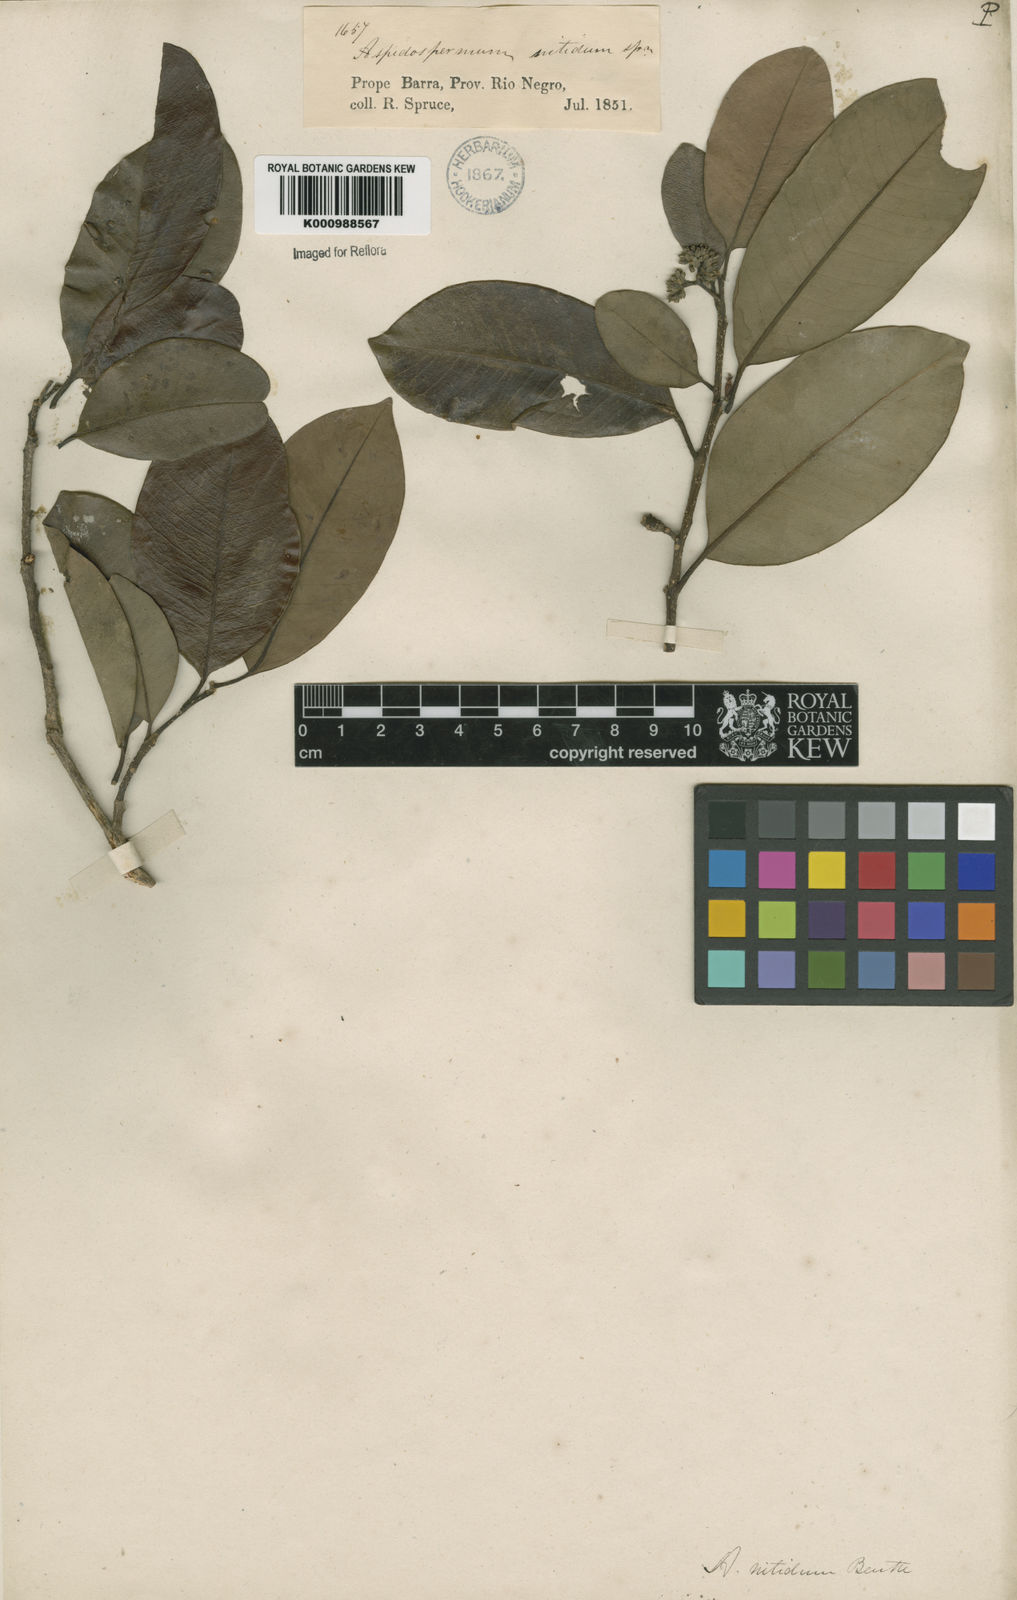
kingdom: Plantae
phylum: Tracheophyta
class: Magnoliopsida
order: Gentianales
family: Apocynaceae
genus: Aspidosperma
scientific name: Aspidosperma
